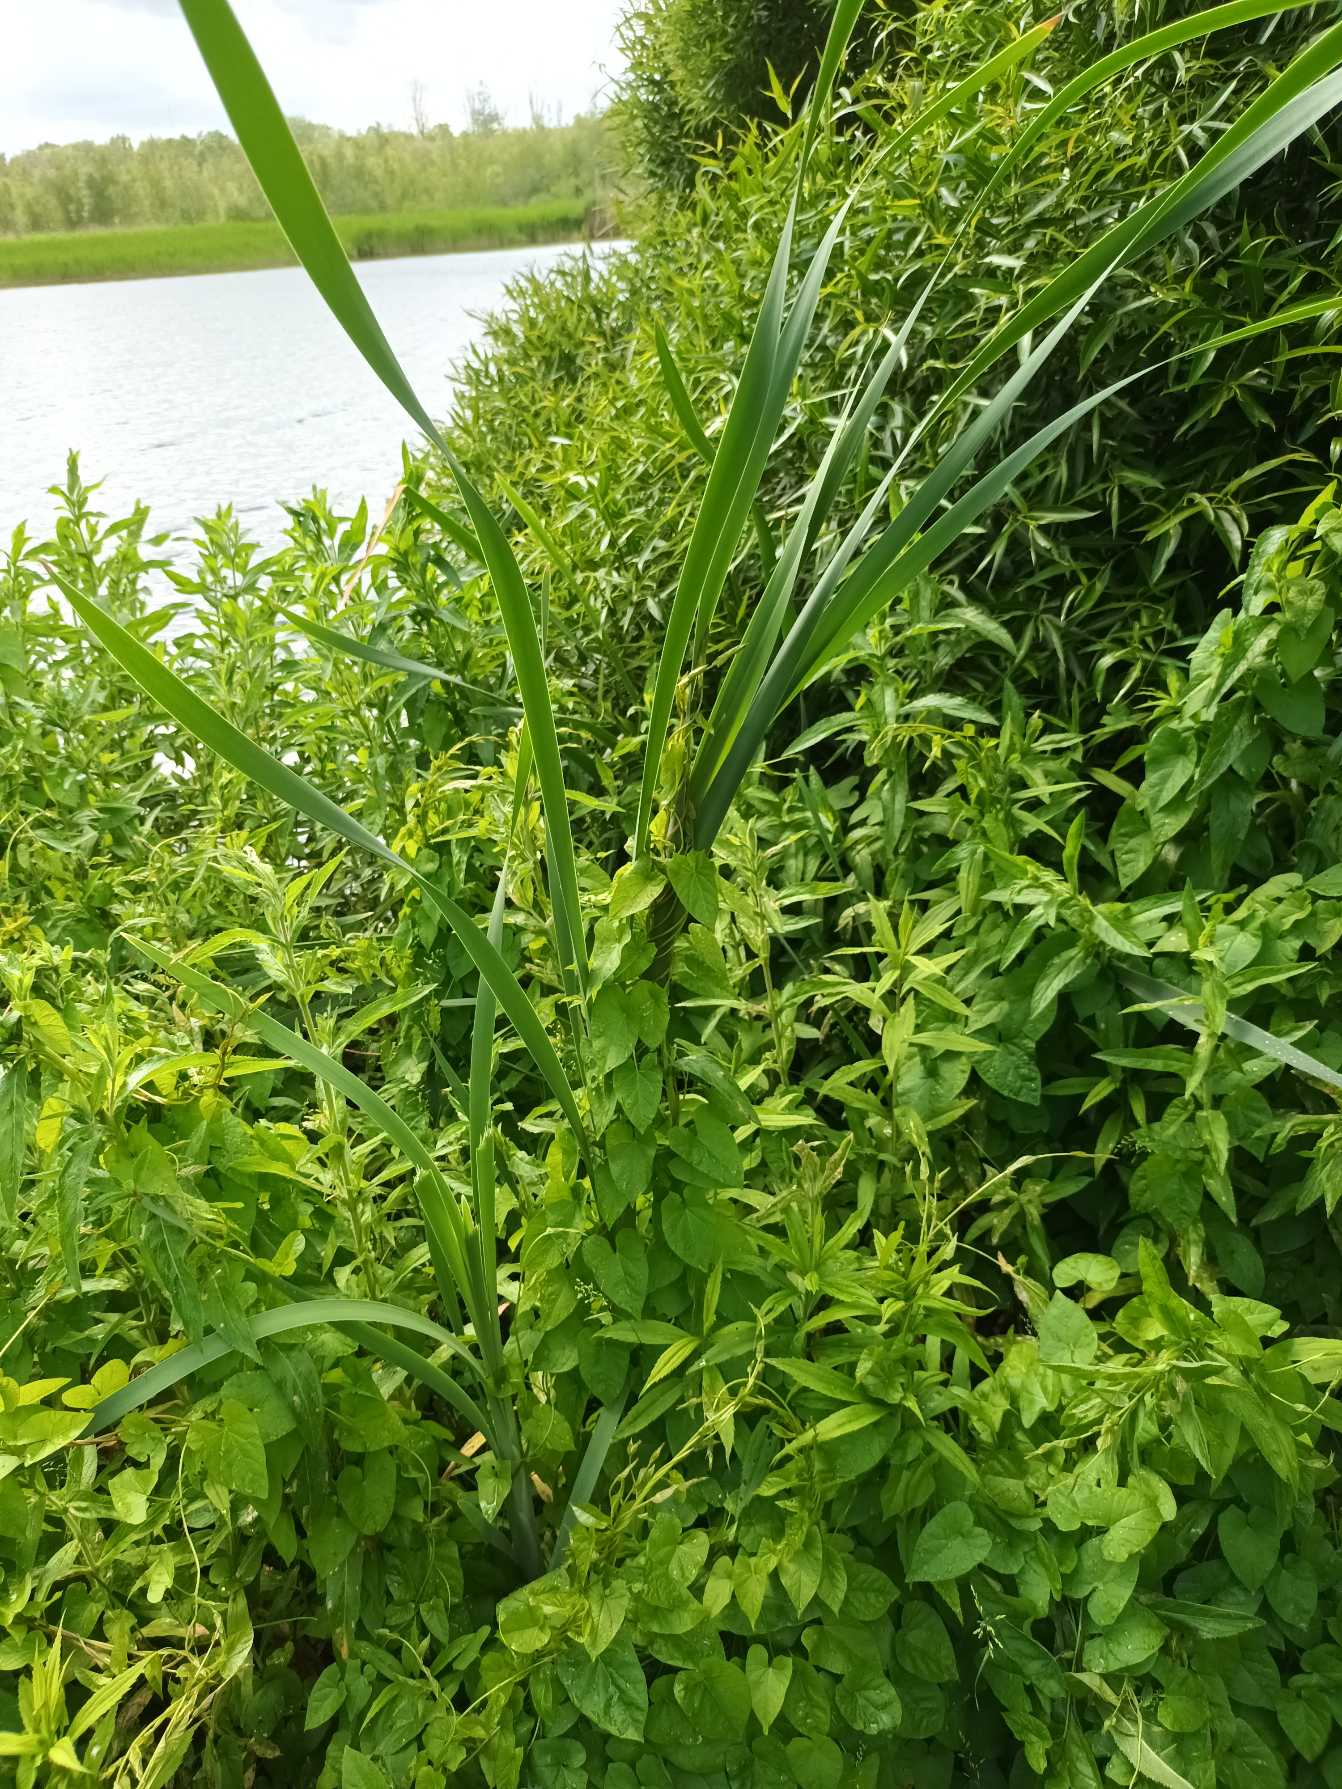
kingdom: Plantae
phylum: Tracheophyta
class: Liliopsida
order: Poales
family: Typhaceae
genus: Typha
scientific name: Typha latifolia
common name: Bredbladet dunhammer
